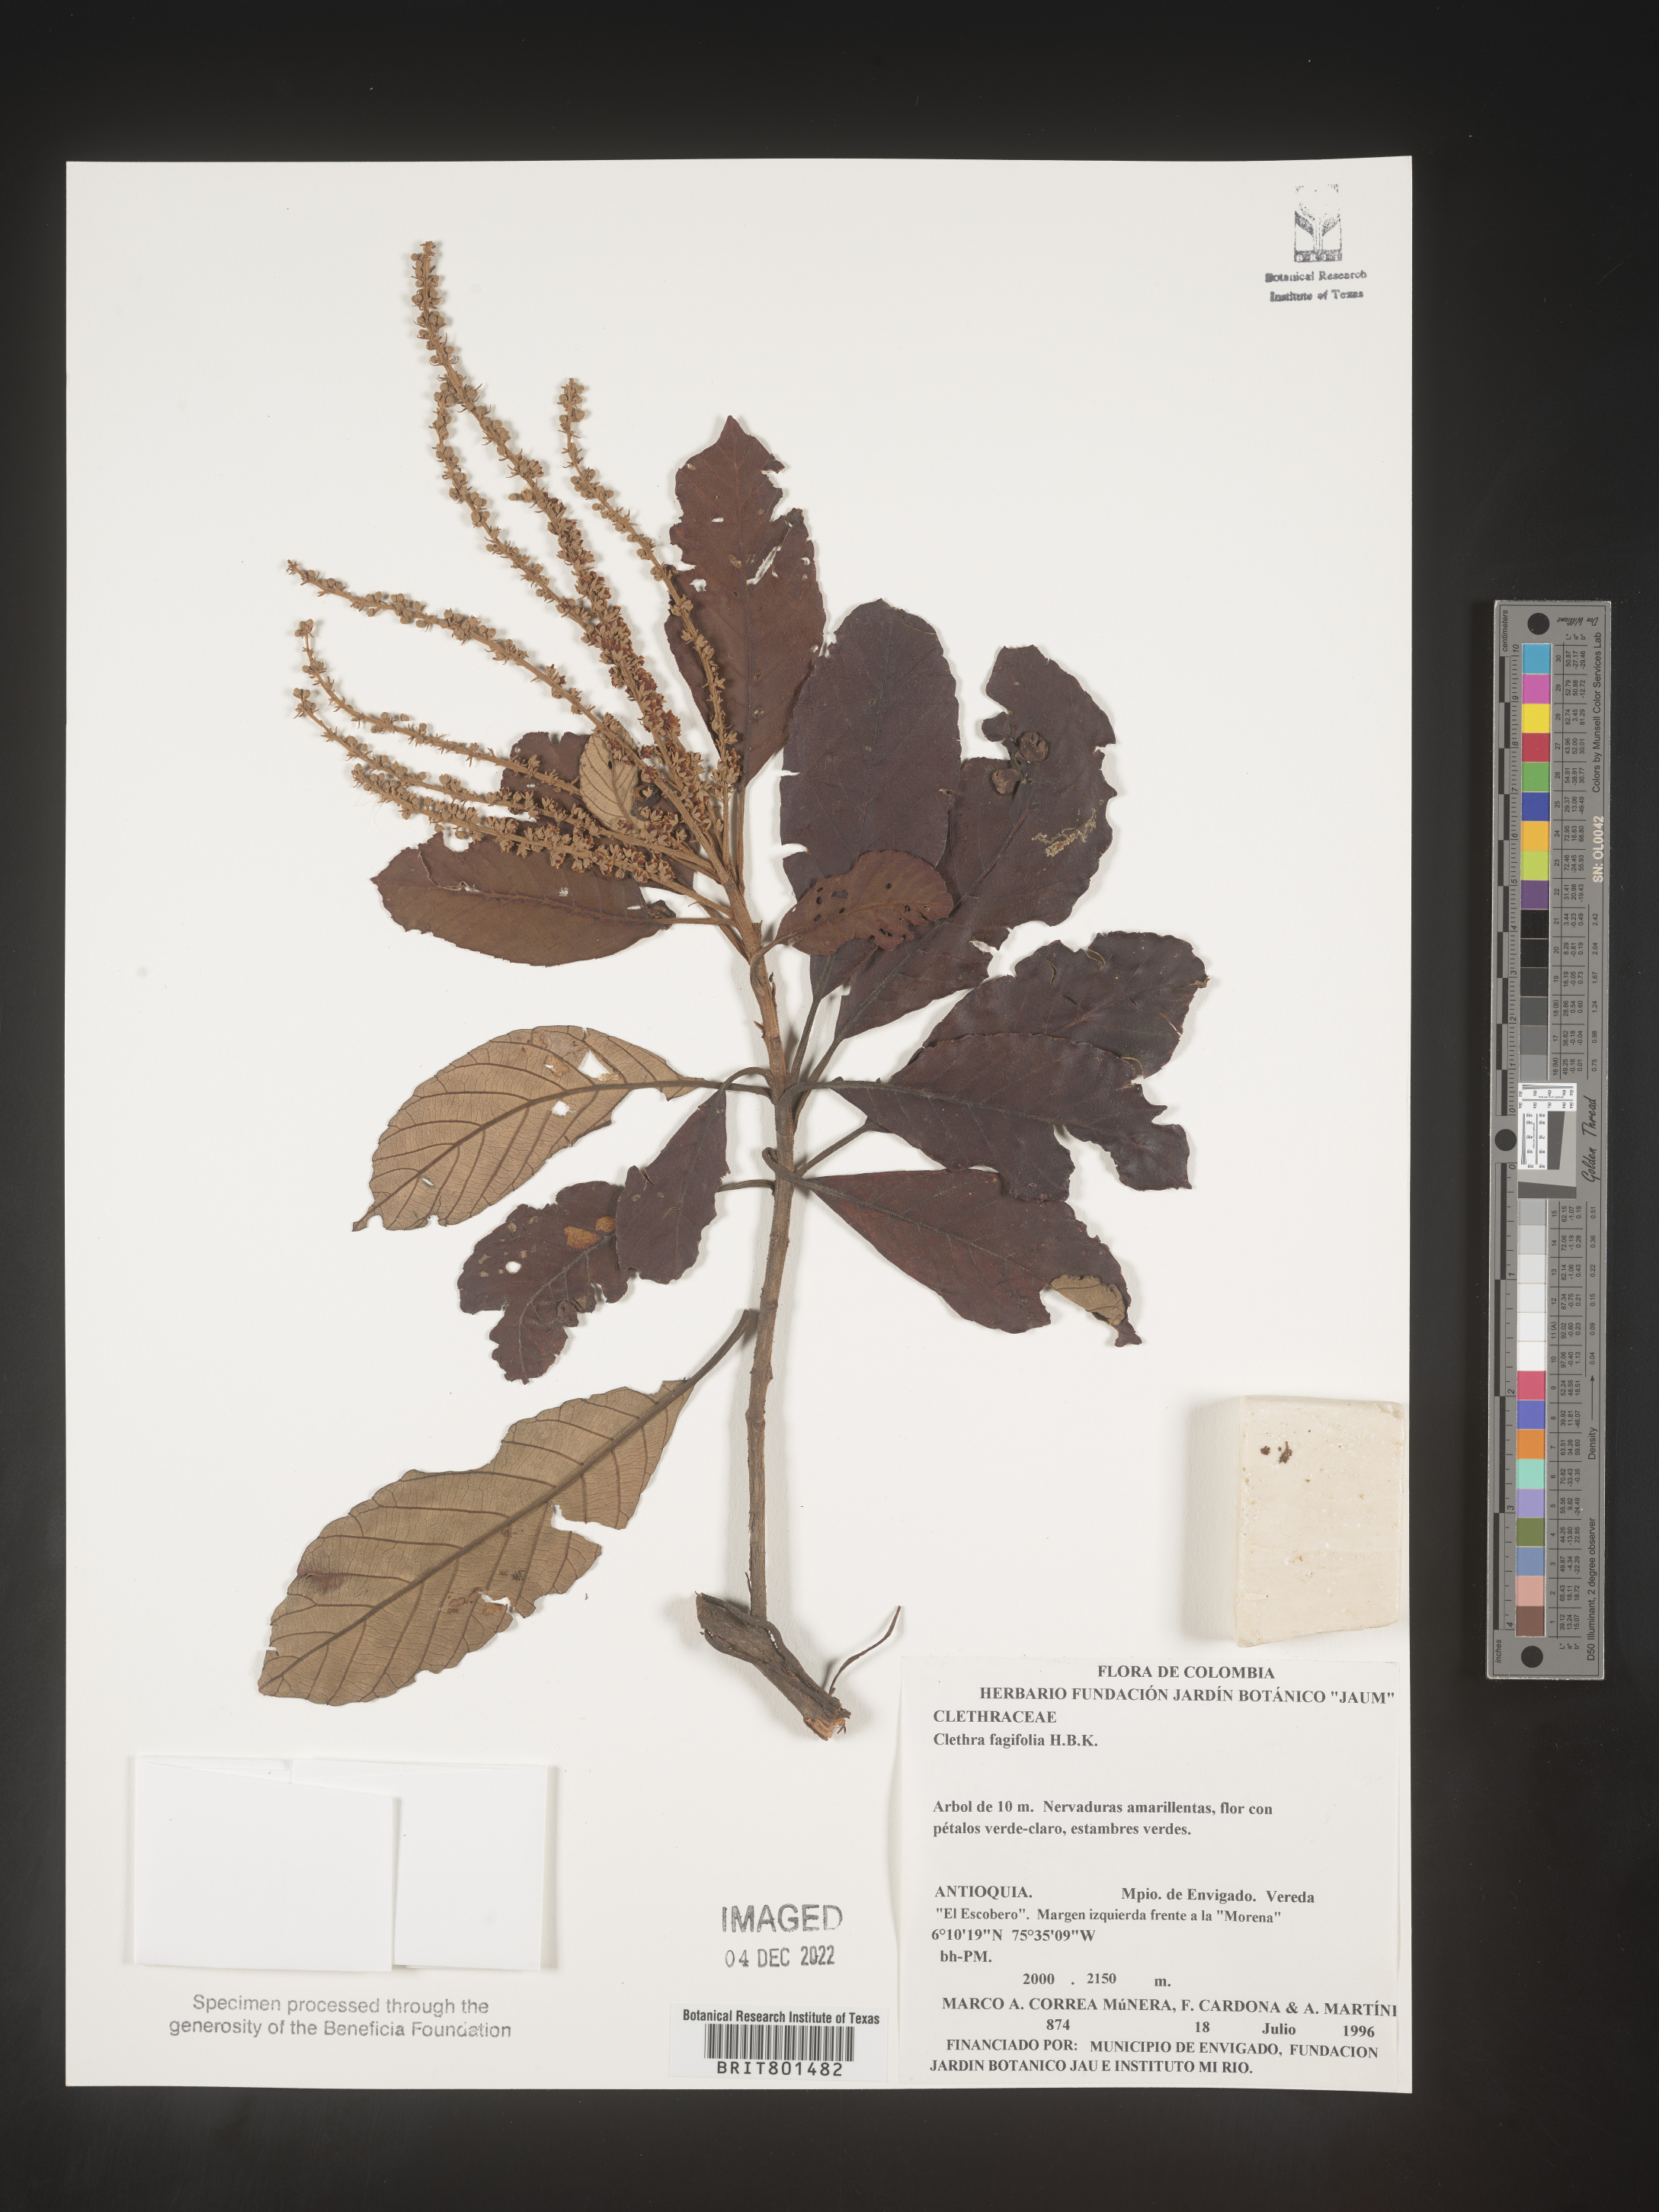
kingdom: Plantae
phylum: Tracheophyta
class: Magnoliopsida
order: Ericales
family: Clethraceae
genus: Clethra
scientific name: Clethra
